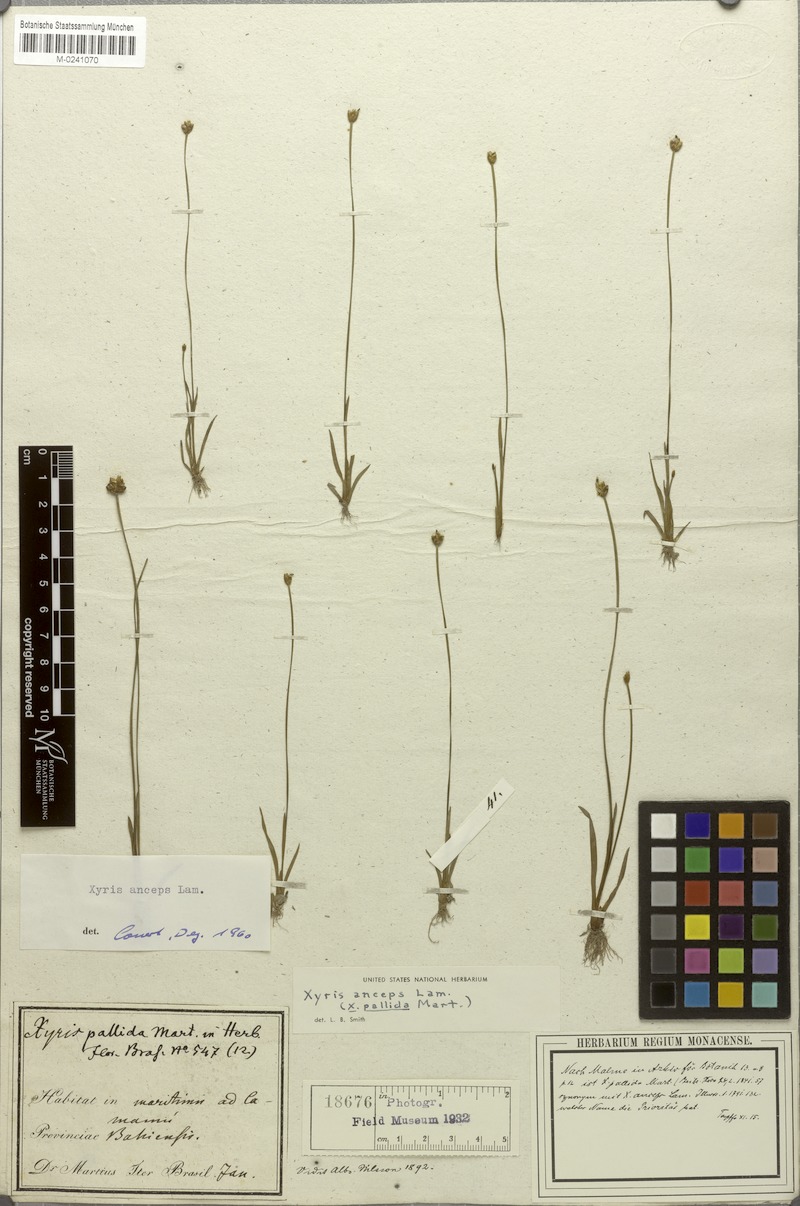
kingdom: Plantae
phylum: Tracheophyta
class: Liliopsida
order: Poales
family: Xyridaceae
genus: Xyris
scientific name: Xyris anceps
